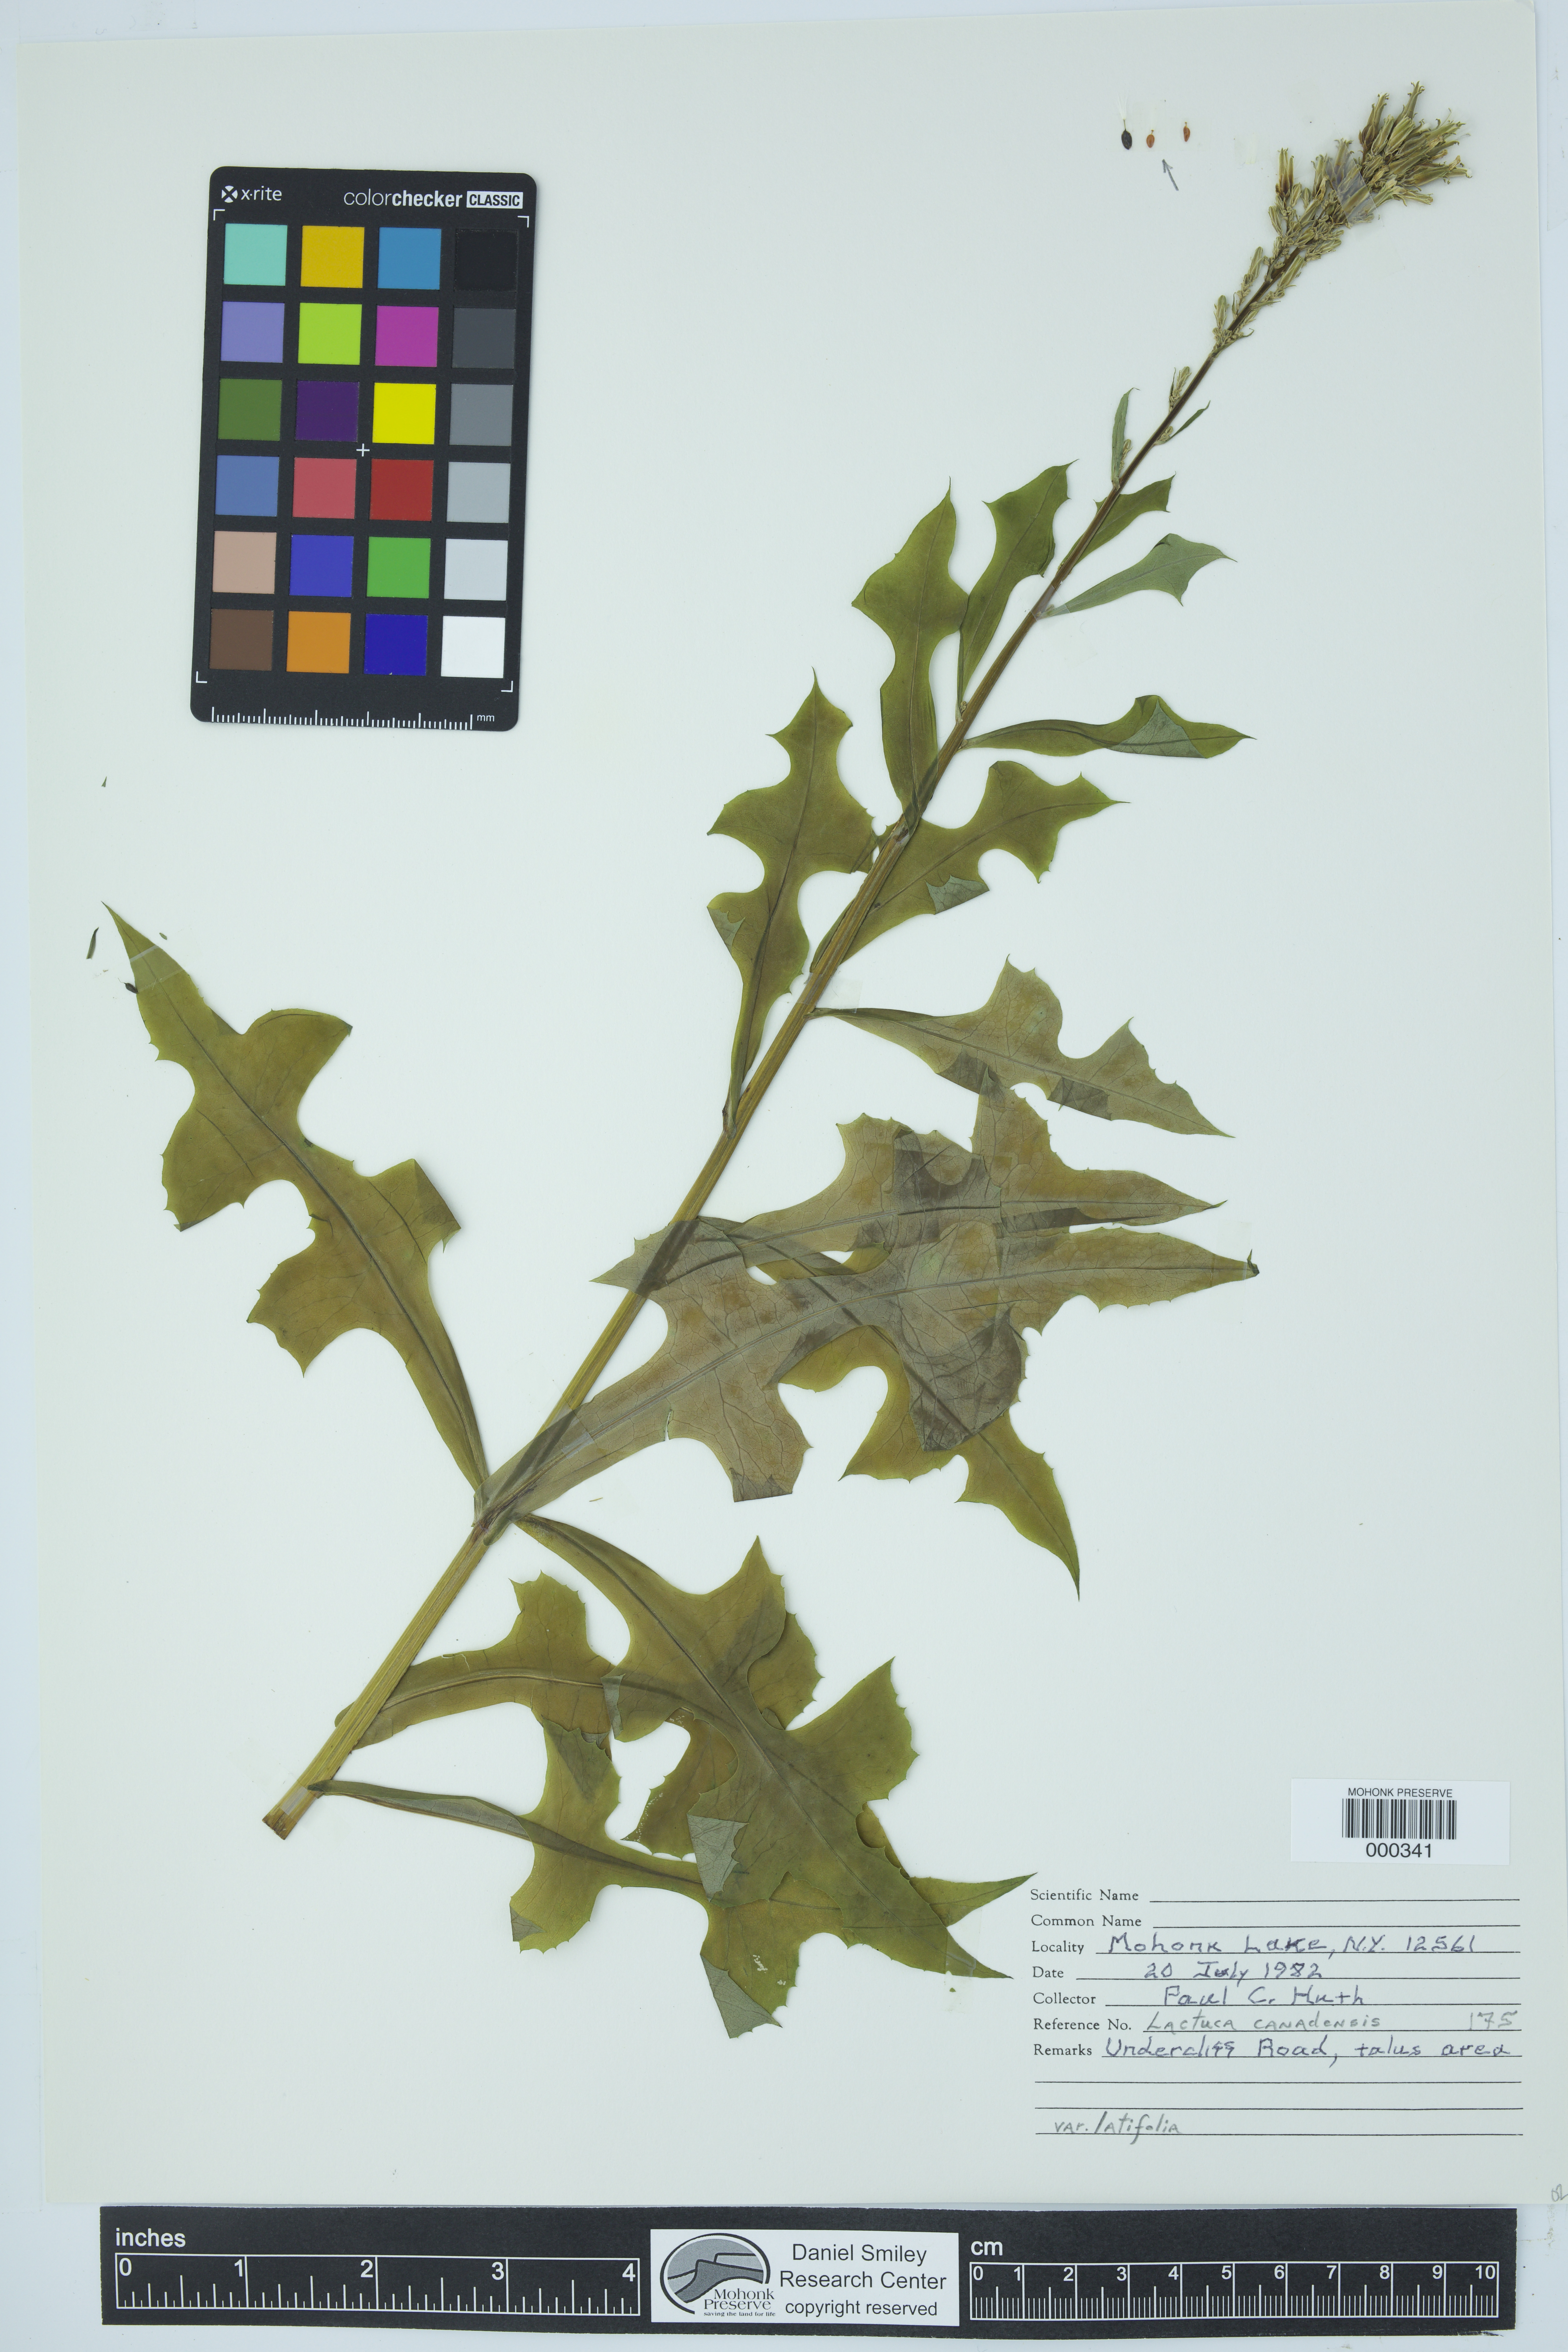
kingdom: Plantae
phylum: Tracheophyta
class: Magnoliopsida
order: Asterales
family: Asteraceae
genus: Lactuca
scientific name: Lactuca canadensis
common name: Canada lettuce
